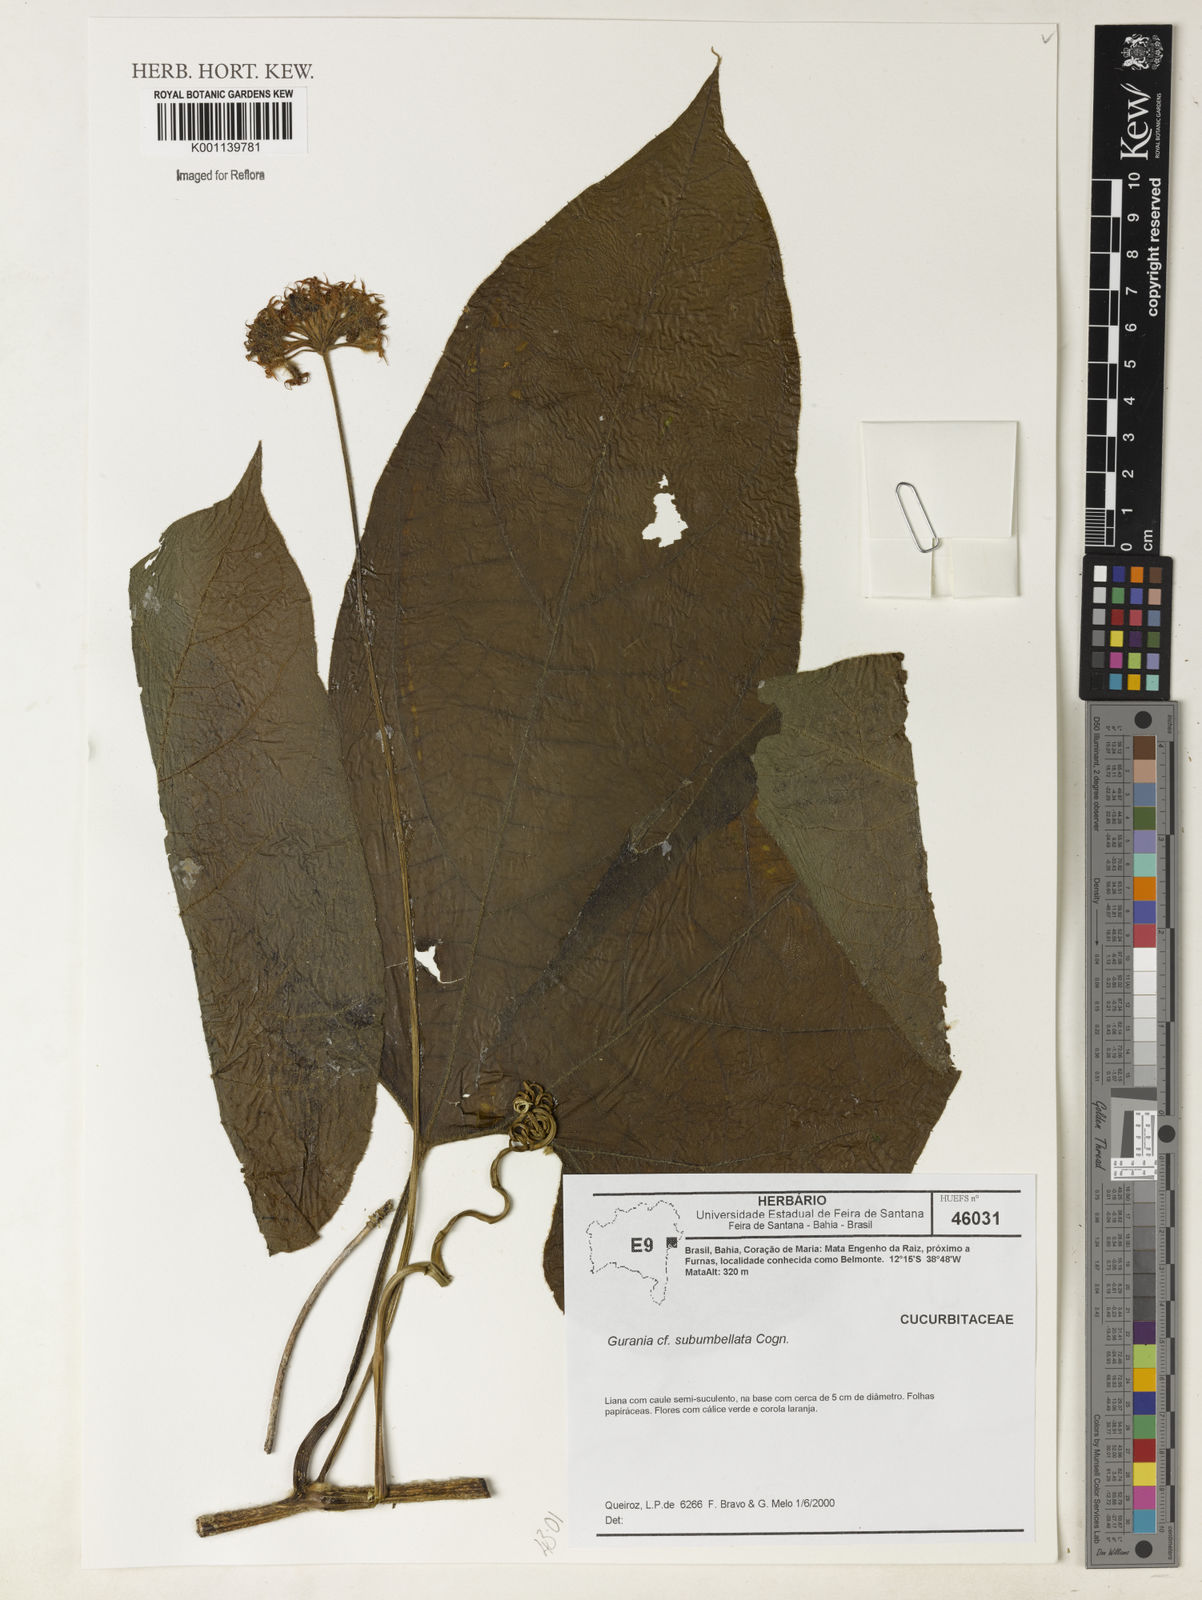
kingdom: Plantae
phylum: Tracheophyta
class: Magnoliopsida
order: Cucurbitales
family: Cucurbitaceae
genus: Gurania
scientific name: Gurania subumbellata
